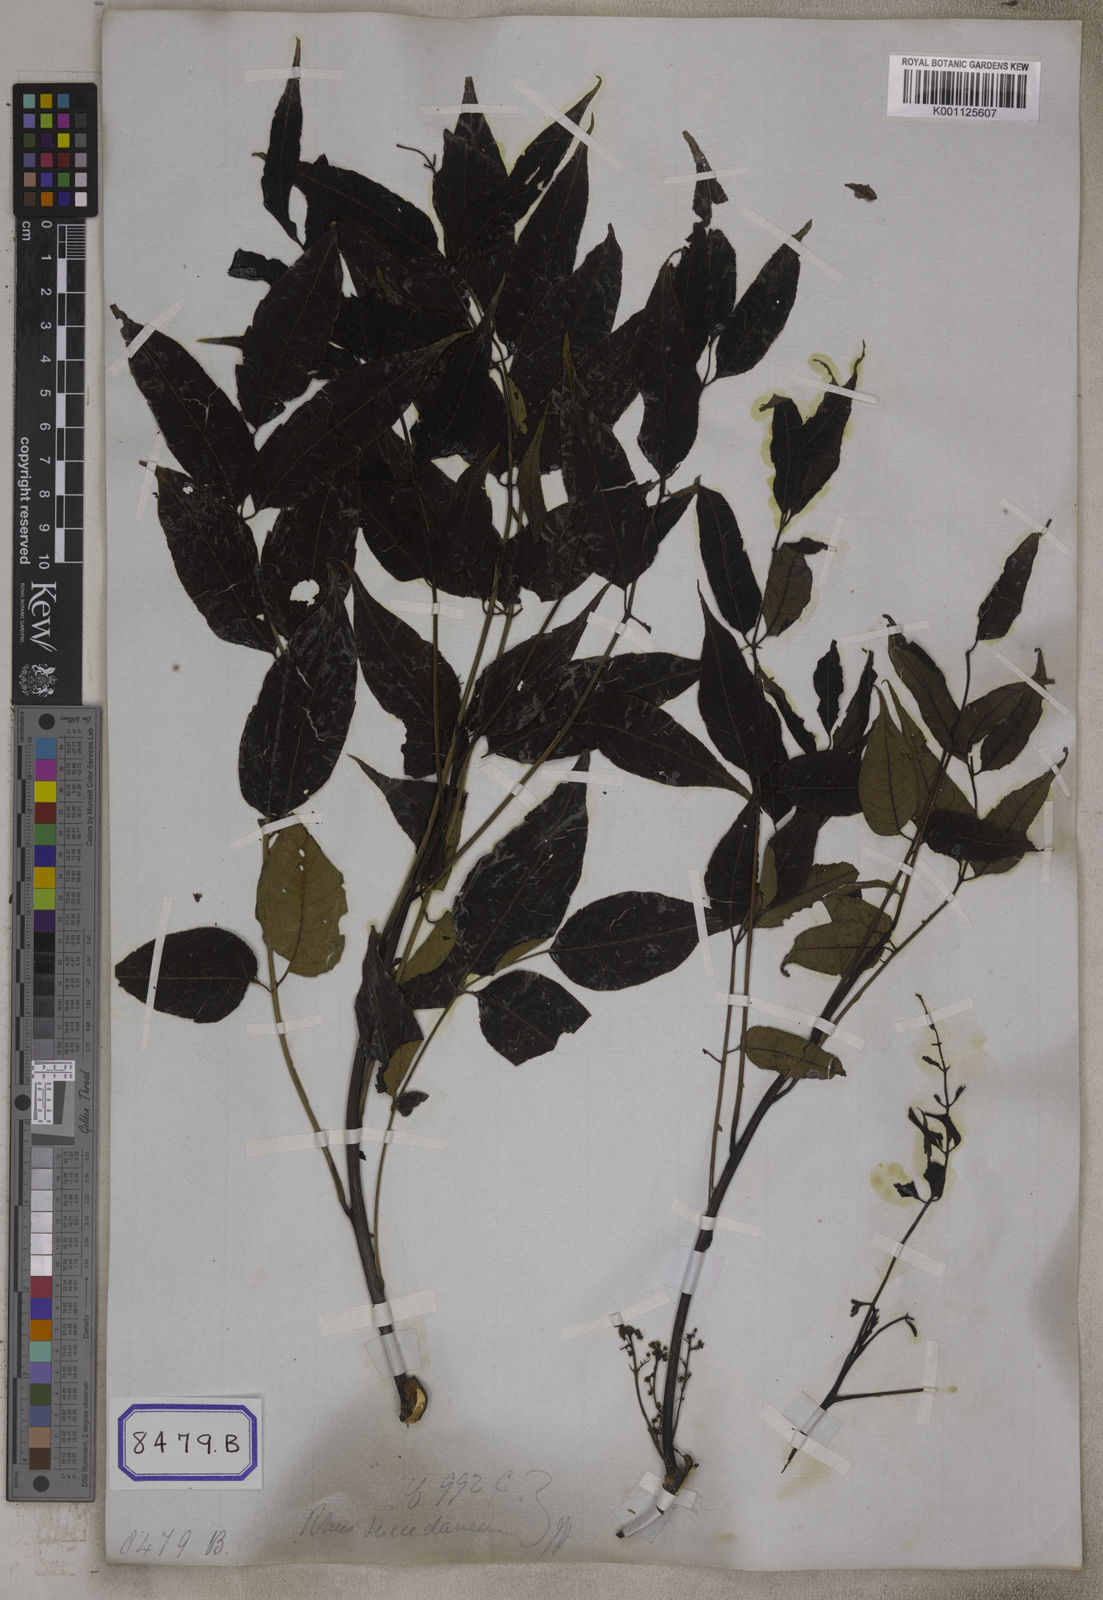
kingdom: Plantae
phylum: Tracheophyta
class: Magnoliopsida
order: Sapindales
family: Anacardiaceae
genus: Spondias
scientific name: Spondias
